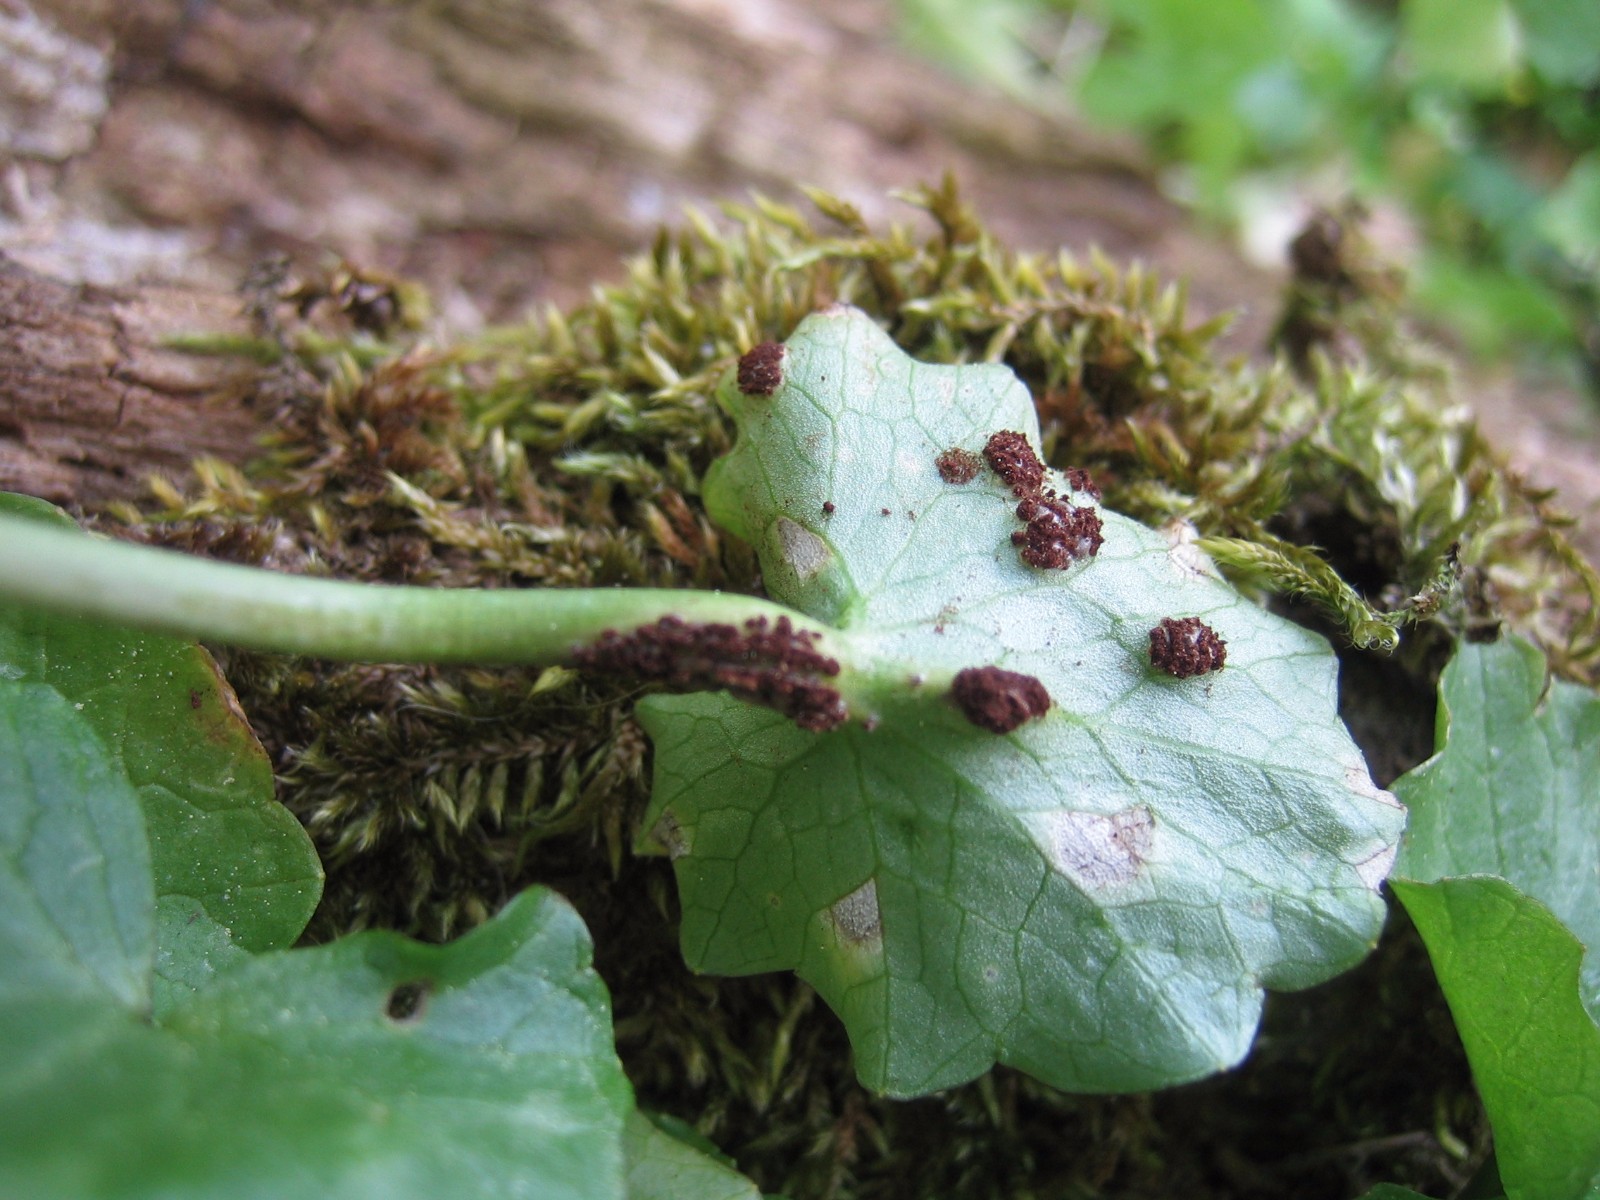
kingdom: Fungi
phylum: Basidiomycota
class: Pucciniomycetes
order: Pucciniales
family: Pucciniaceae
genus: Uromyces
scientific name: Uromyces ficariae
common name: vorterod-encellerust
